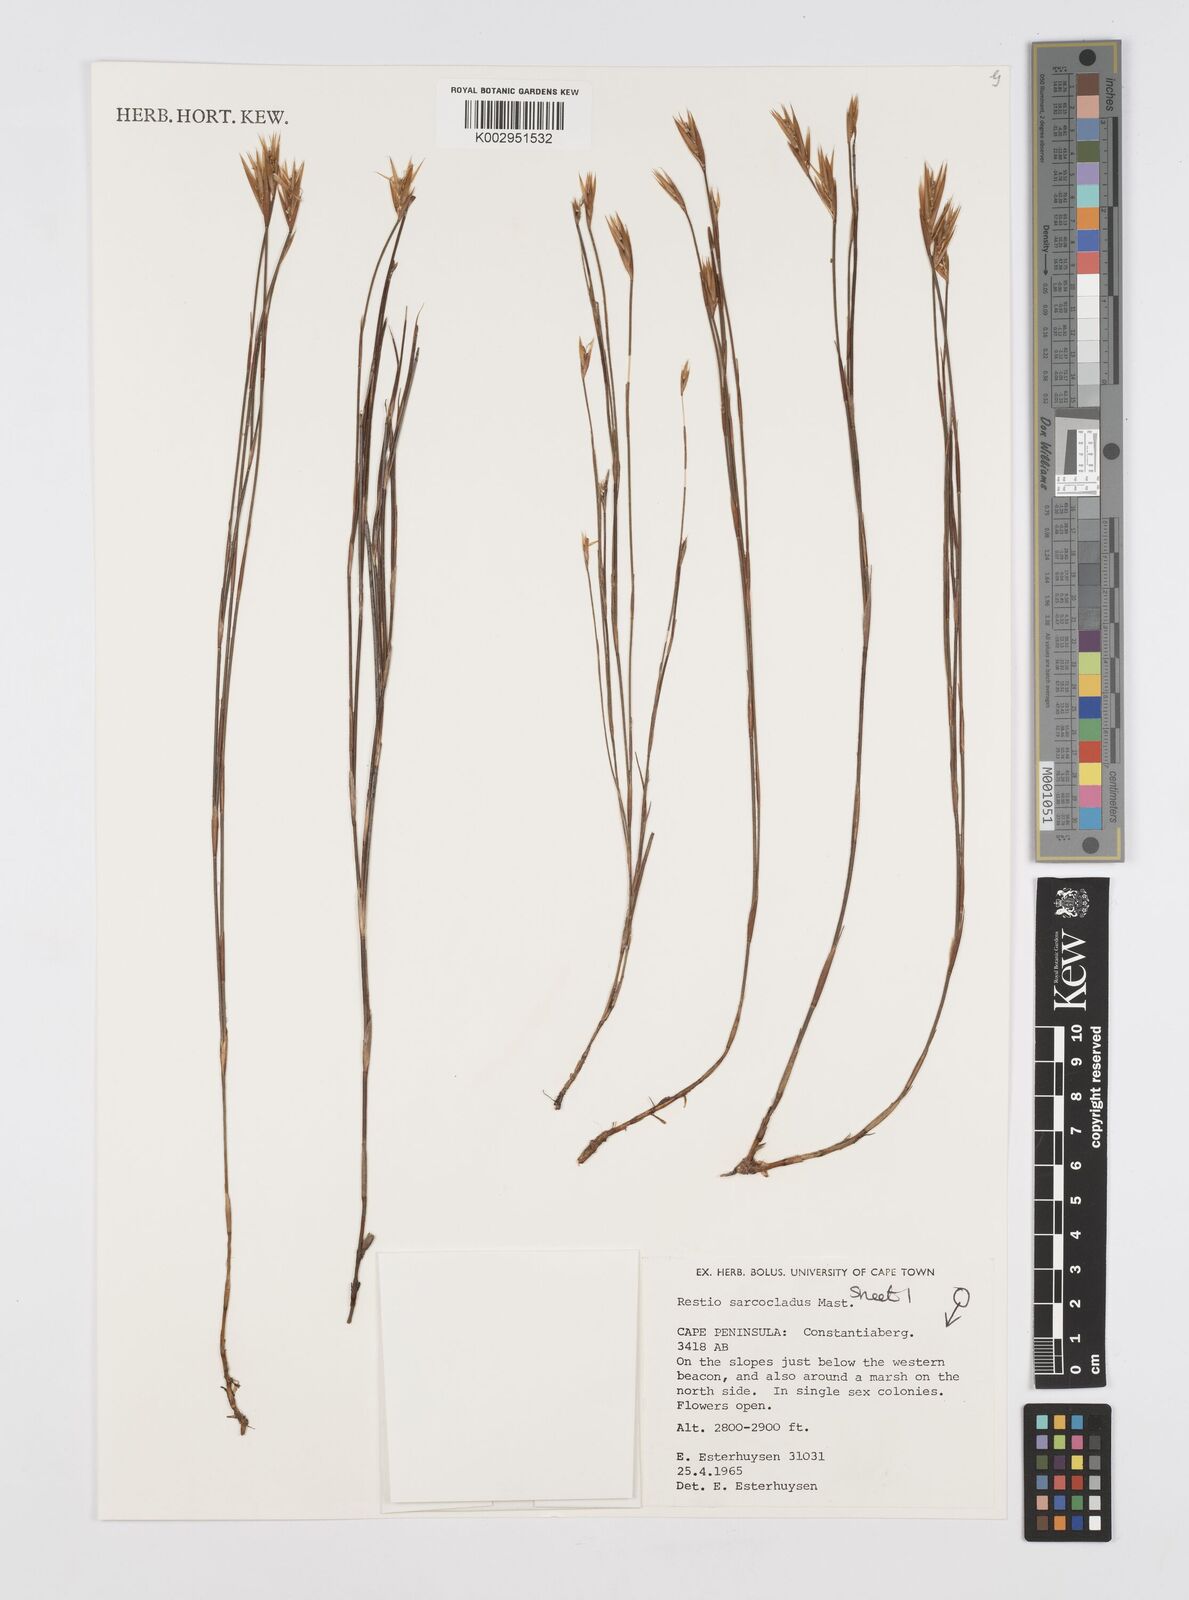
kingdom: Plantae
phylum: Tracheophyta
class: Liliopsida
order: Poales
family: Restionaceae
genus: Restio
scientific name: Restio saroclados
